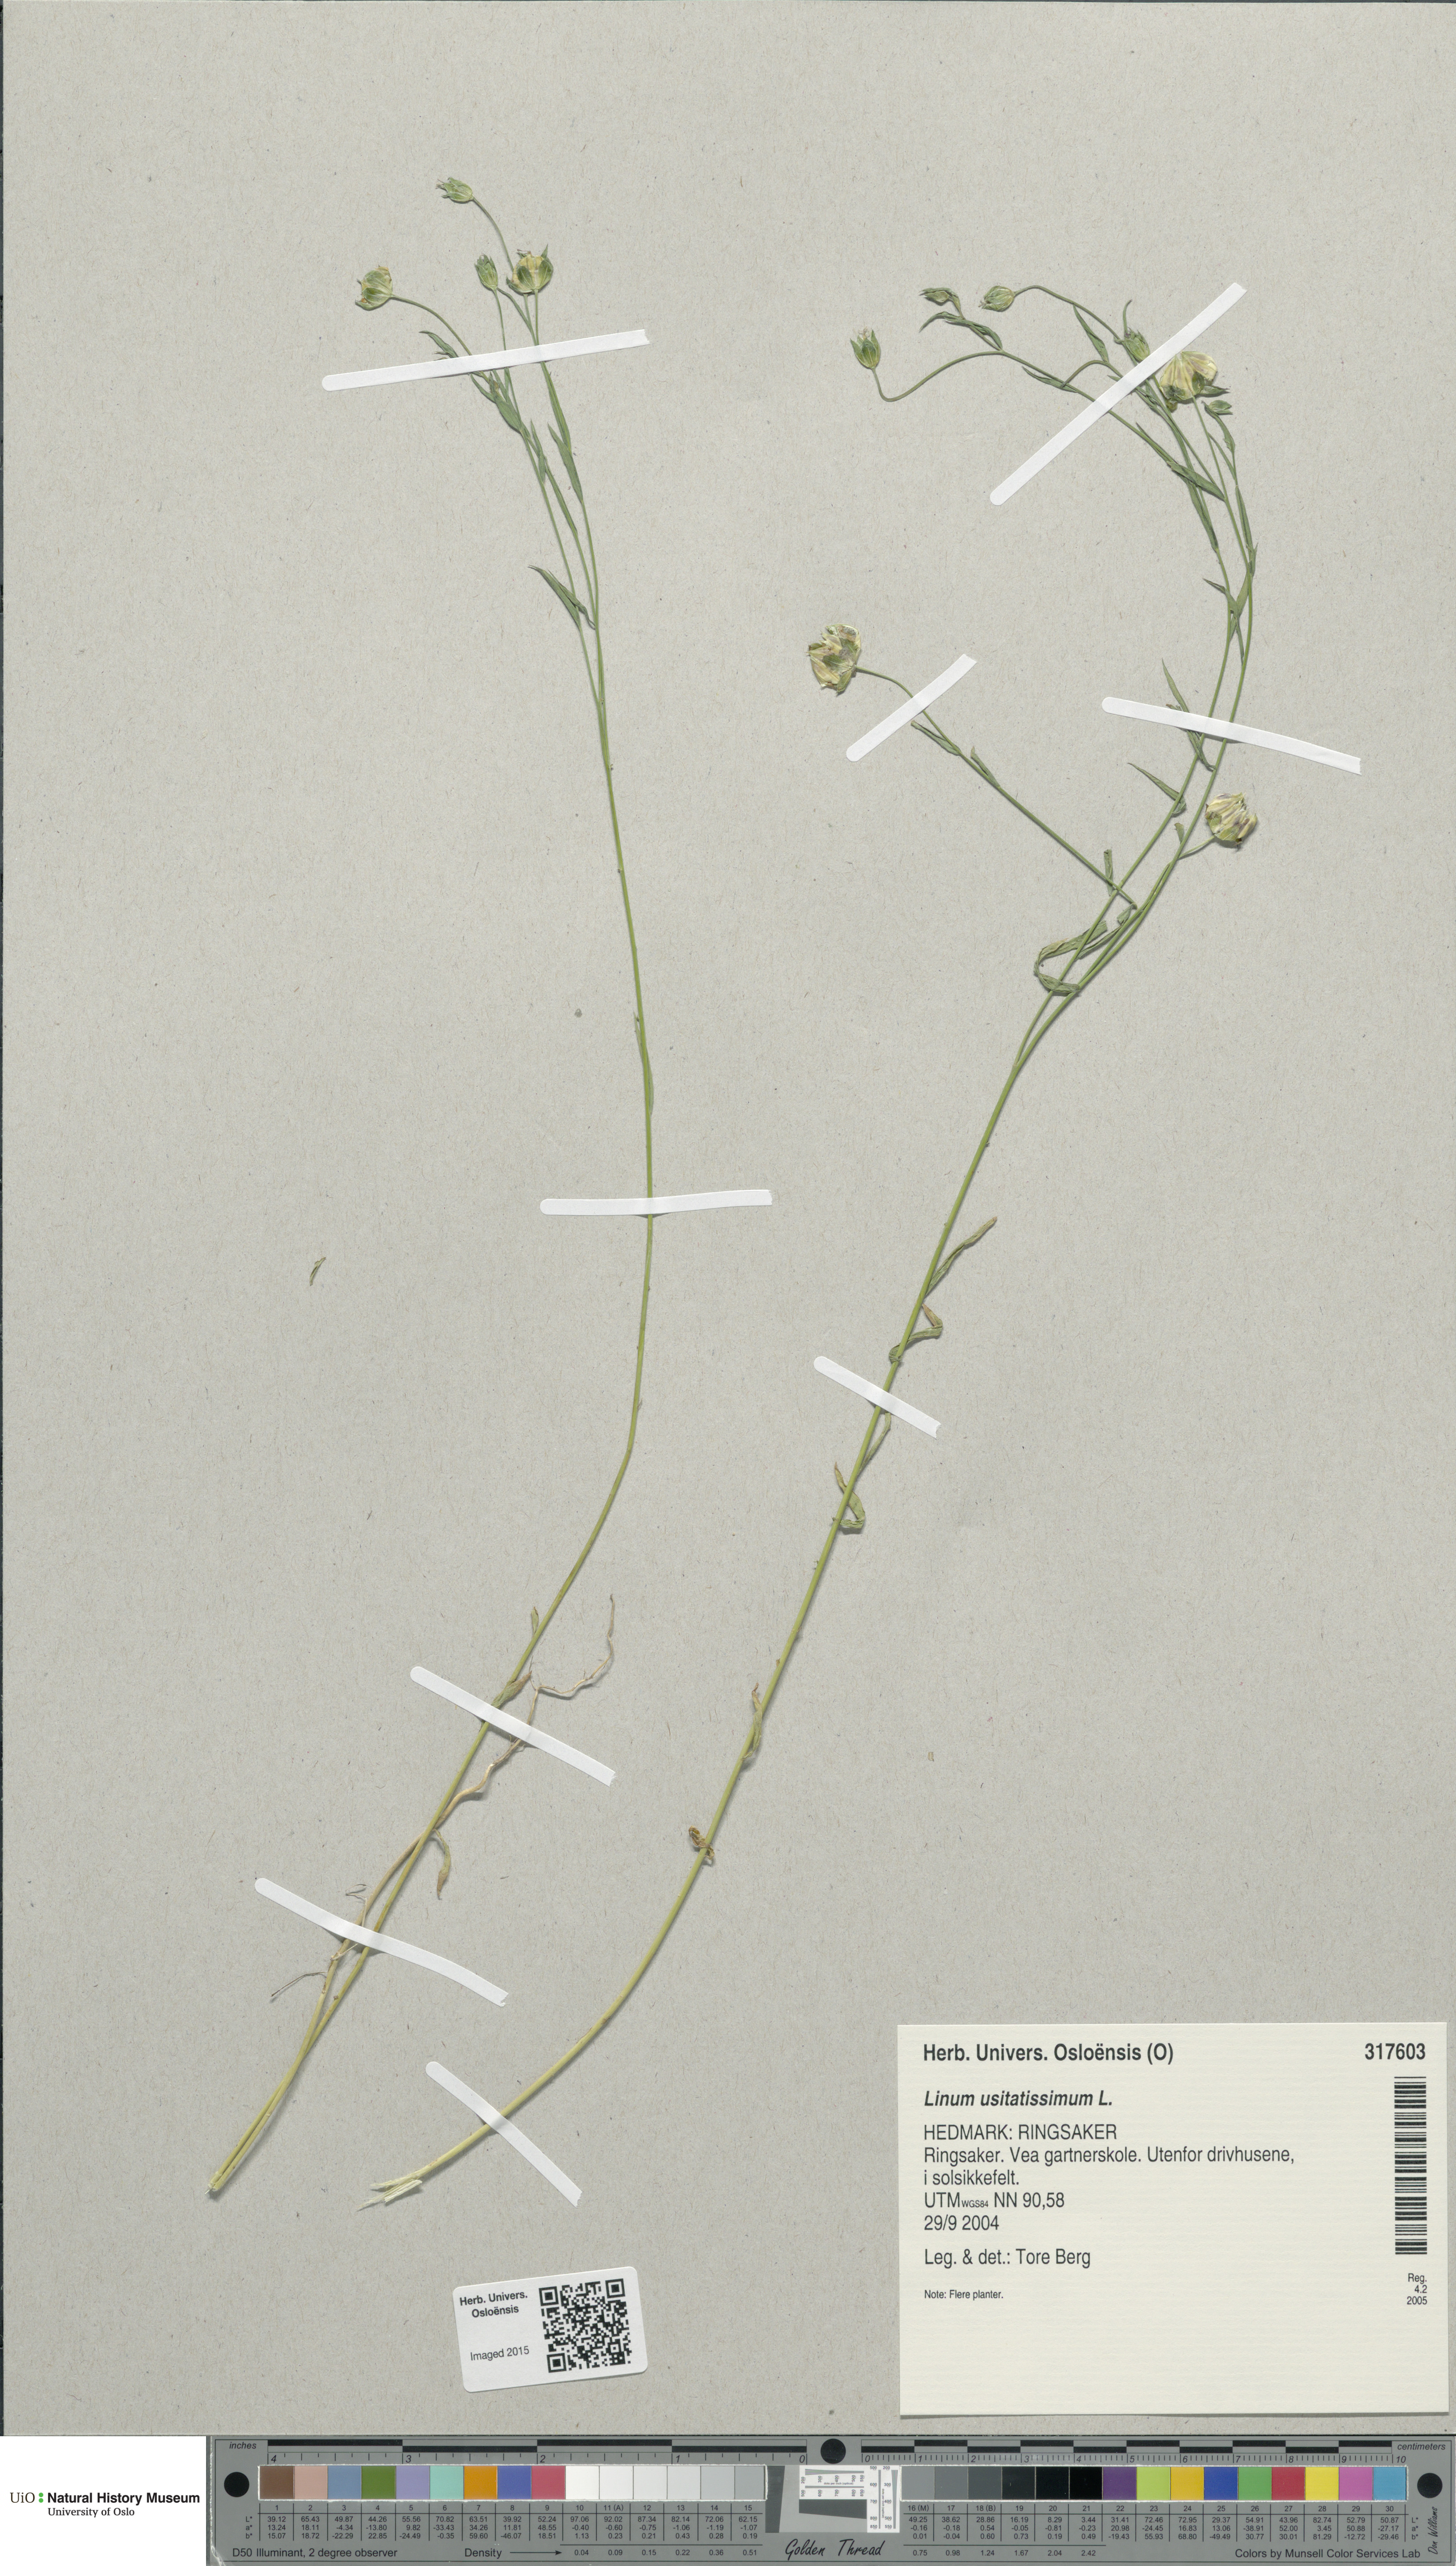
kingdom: Plantae
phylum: Tracheophyta
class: Magnoliopsida
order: Malpighiales
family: Linaceae
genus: Linum
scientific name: Linum usitatissimum
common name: Flax
